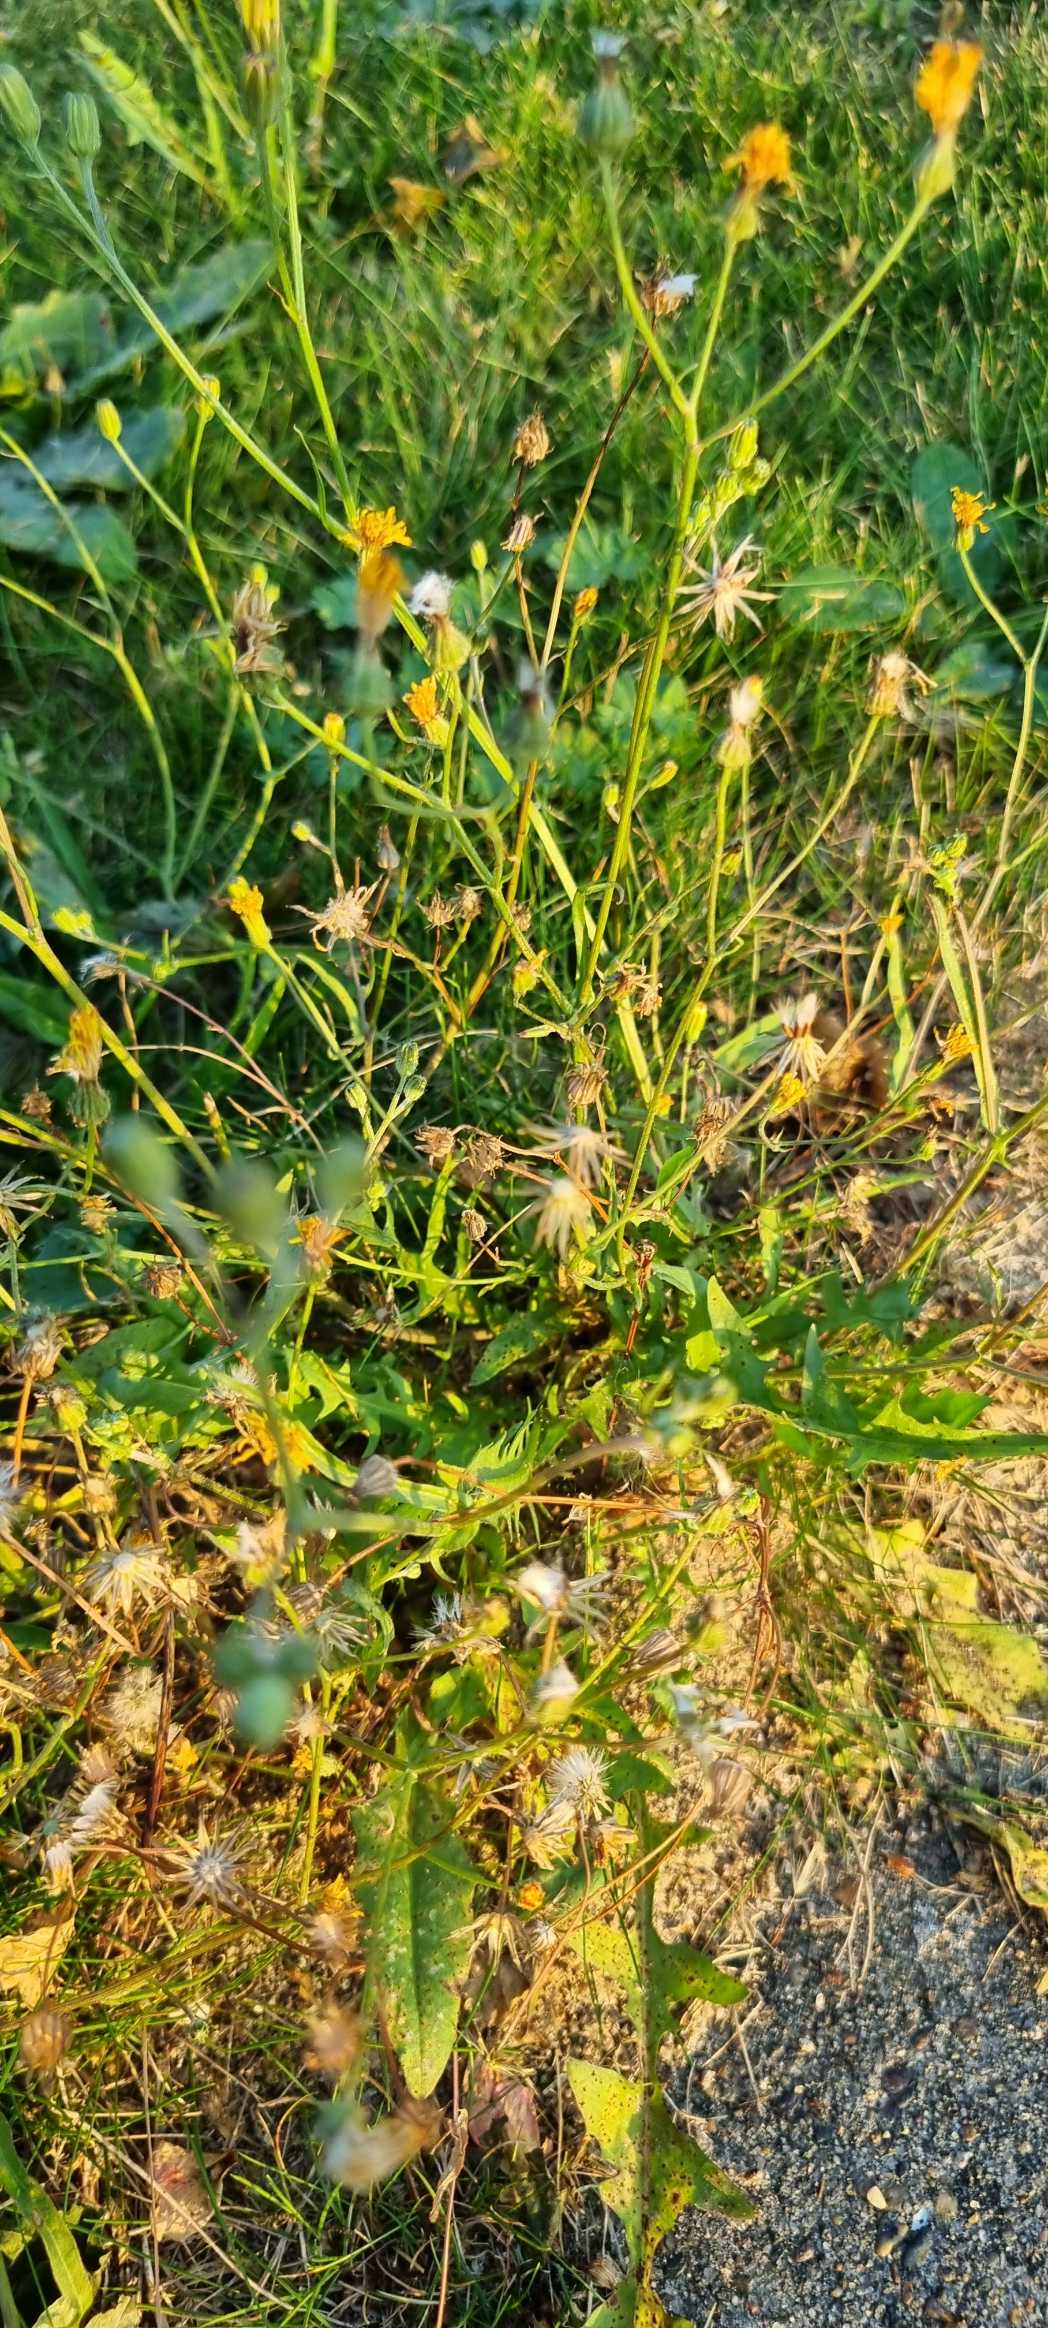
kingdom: Plantae
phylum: Tracheophyta
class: Magnoliopsida
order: Asterales
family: Asteraceae
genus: Crepis
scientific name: Crepis capillaris
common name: Grøn høgeskæg
